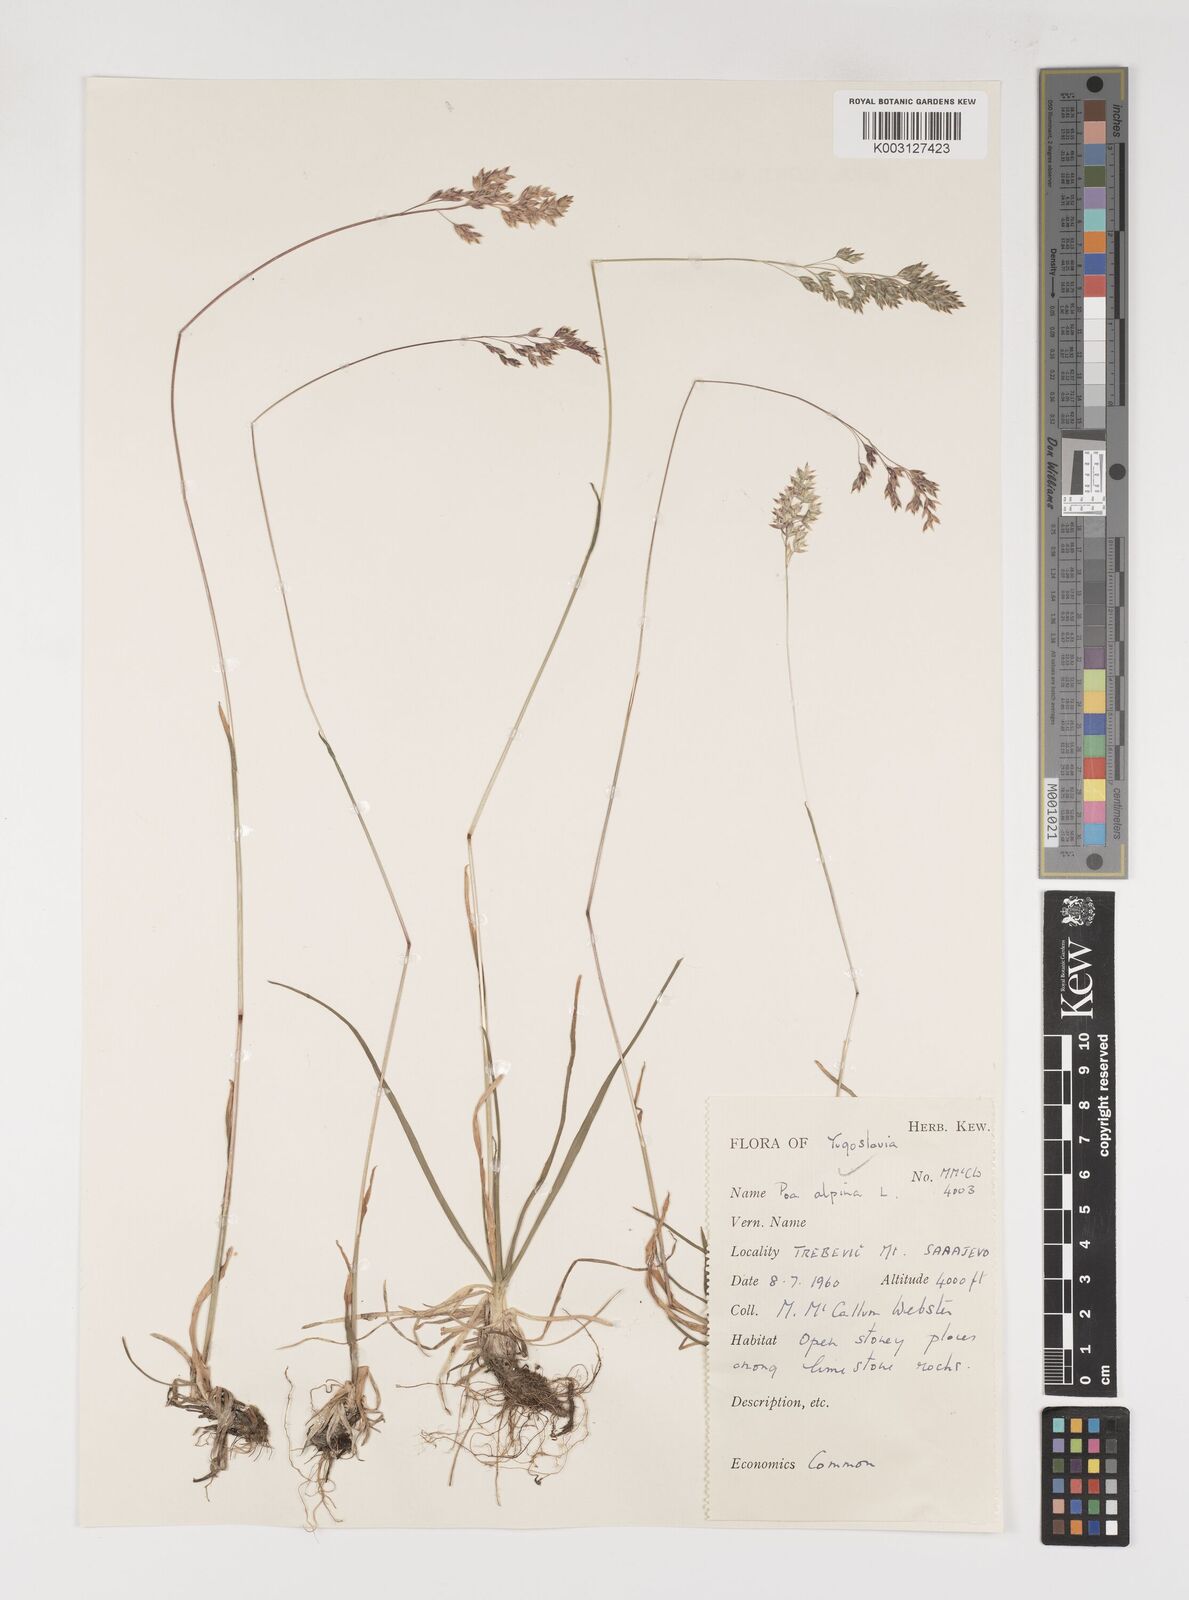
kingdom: Plantae
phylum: Tracheophyta
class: Liliopsida
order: Poales
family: Poaceae
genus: Poa
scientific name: Poa alpina
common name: Alpine bluegrass
